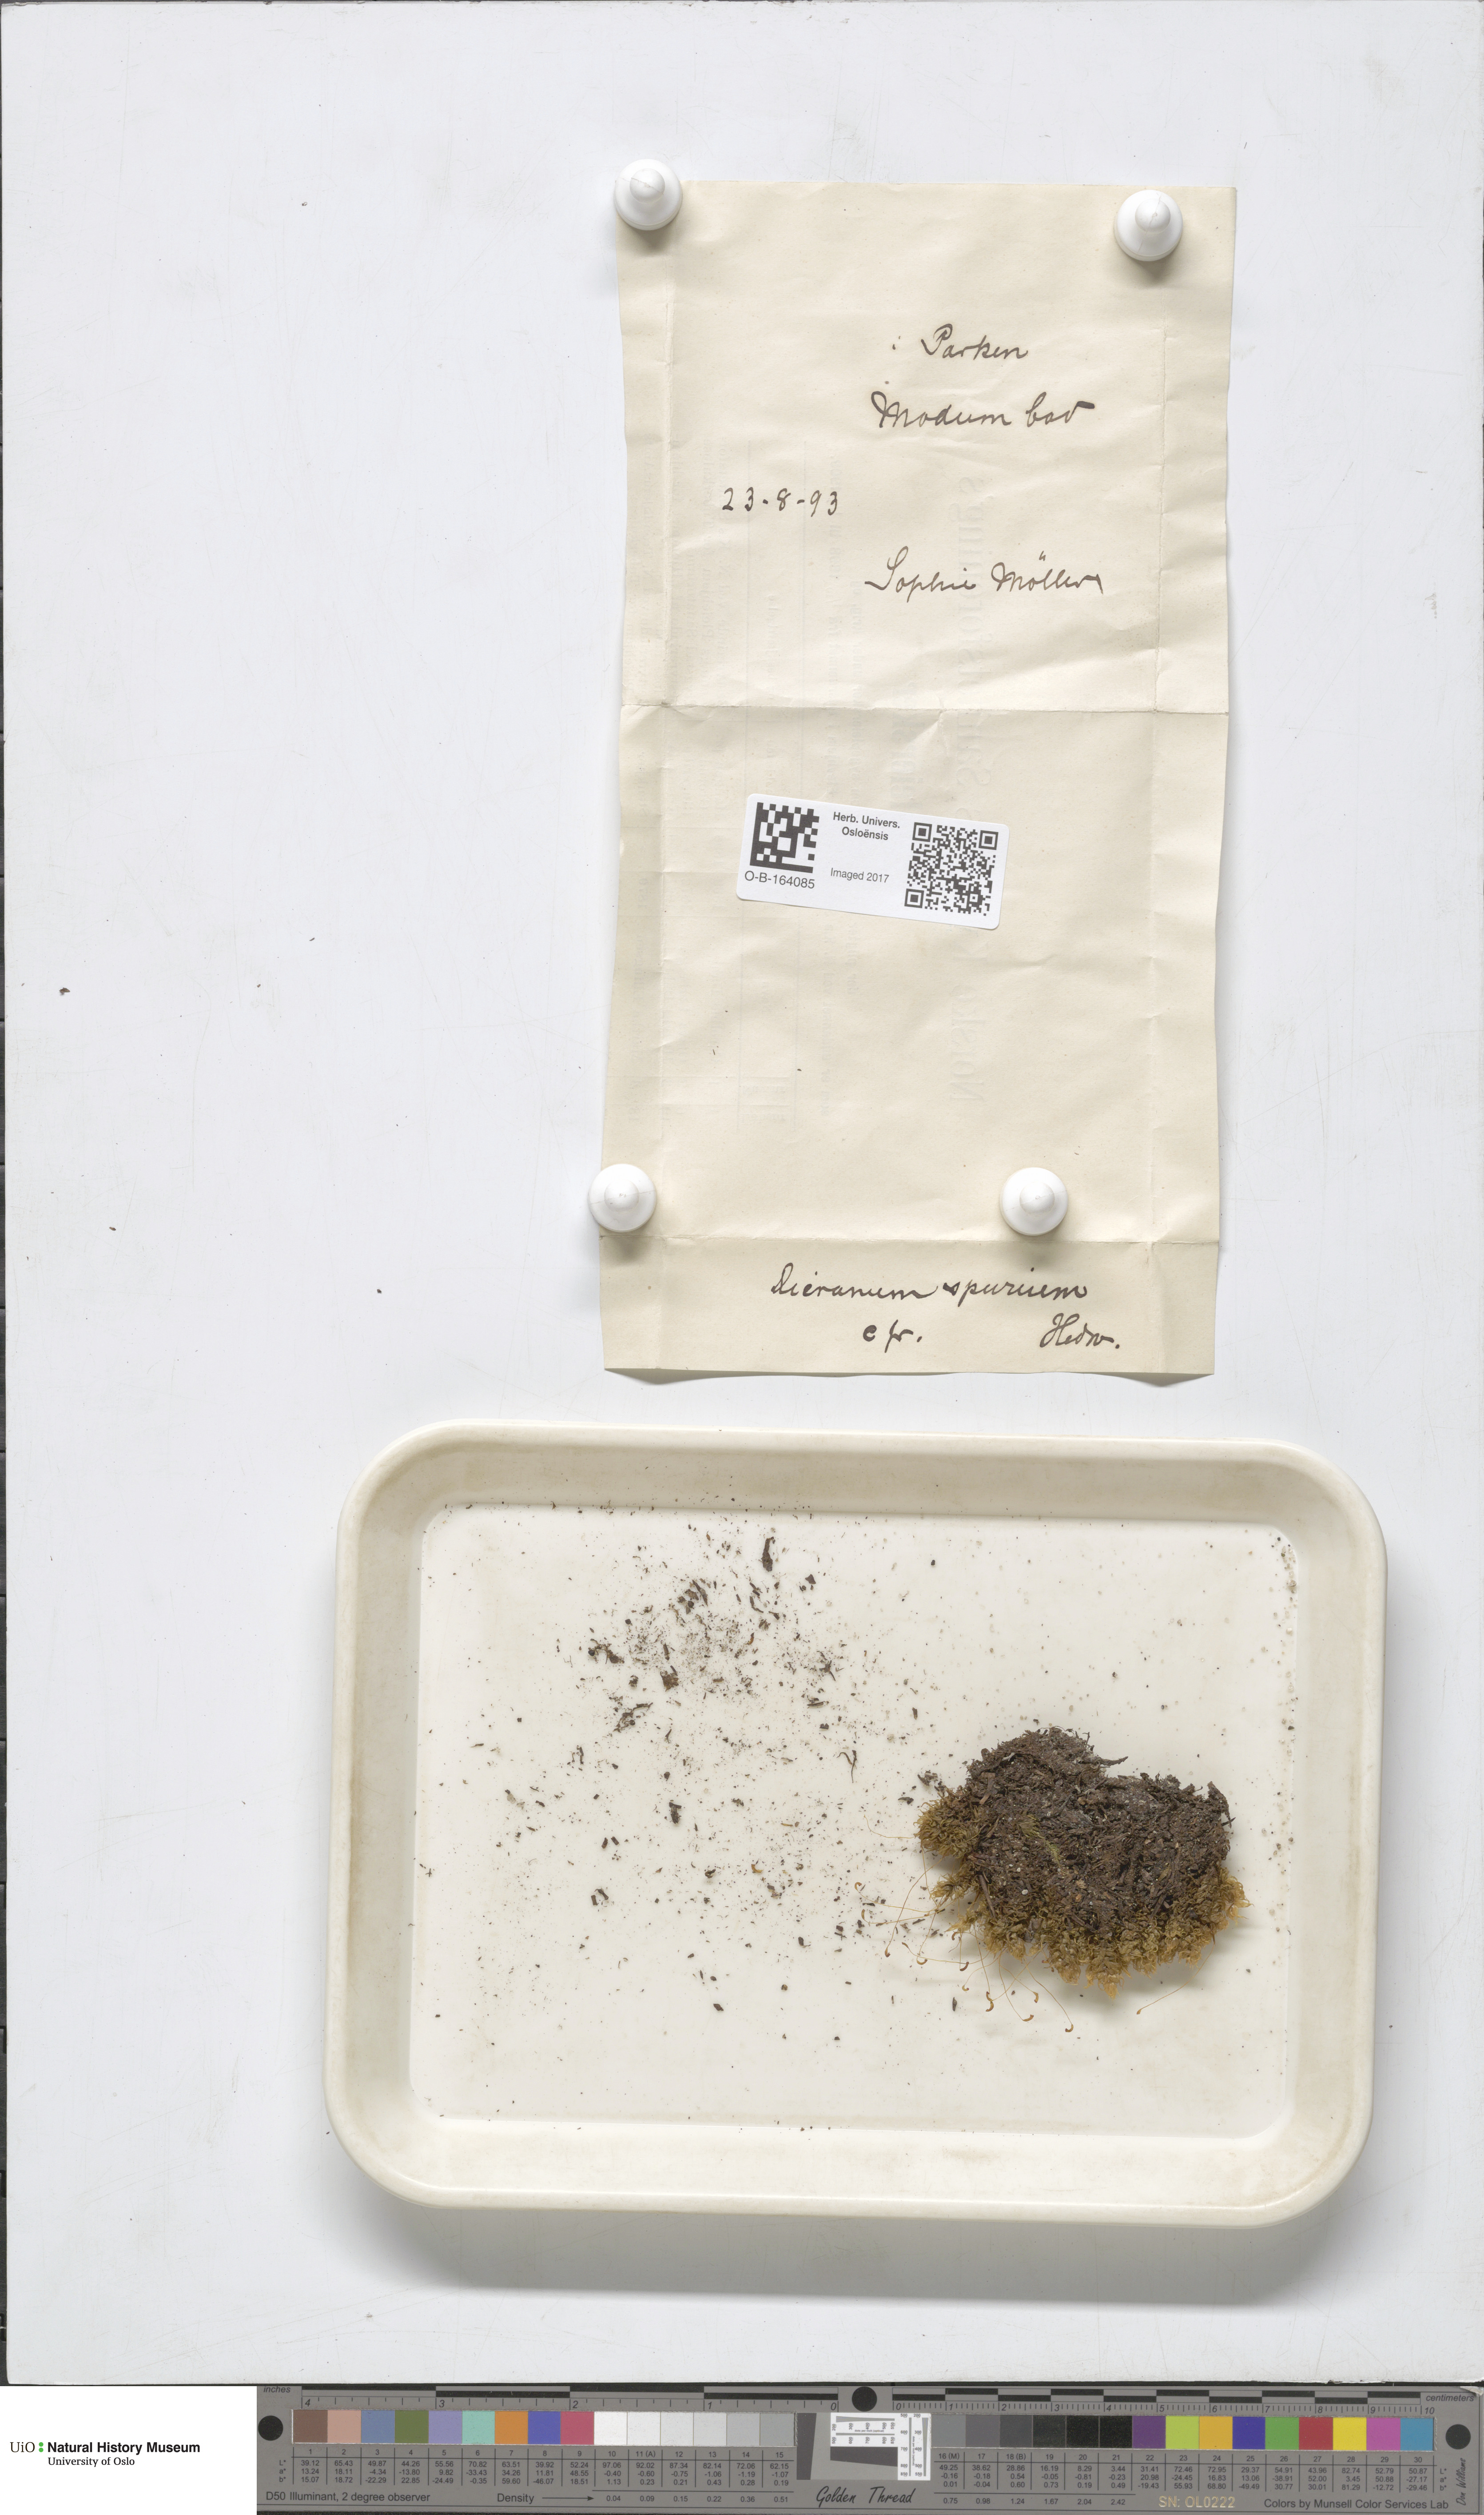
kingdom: Plantae
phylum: Bryophyta
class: Bryopsida
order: Dicranales
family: Dicranaceae
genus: Dicranum
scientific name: Dicranum spurium
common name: Spurred broom moss
